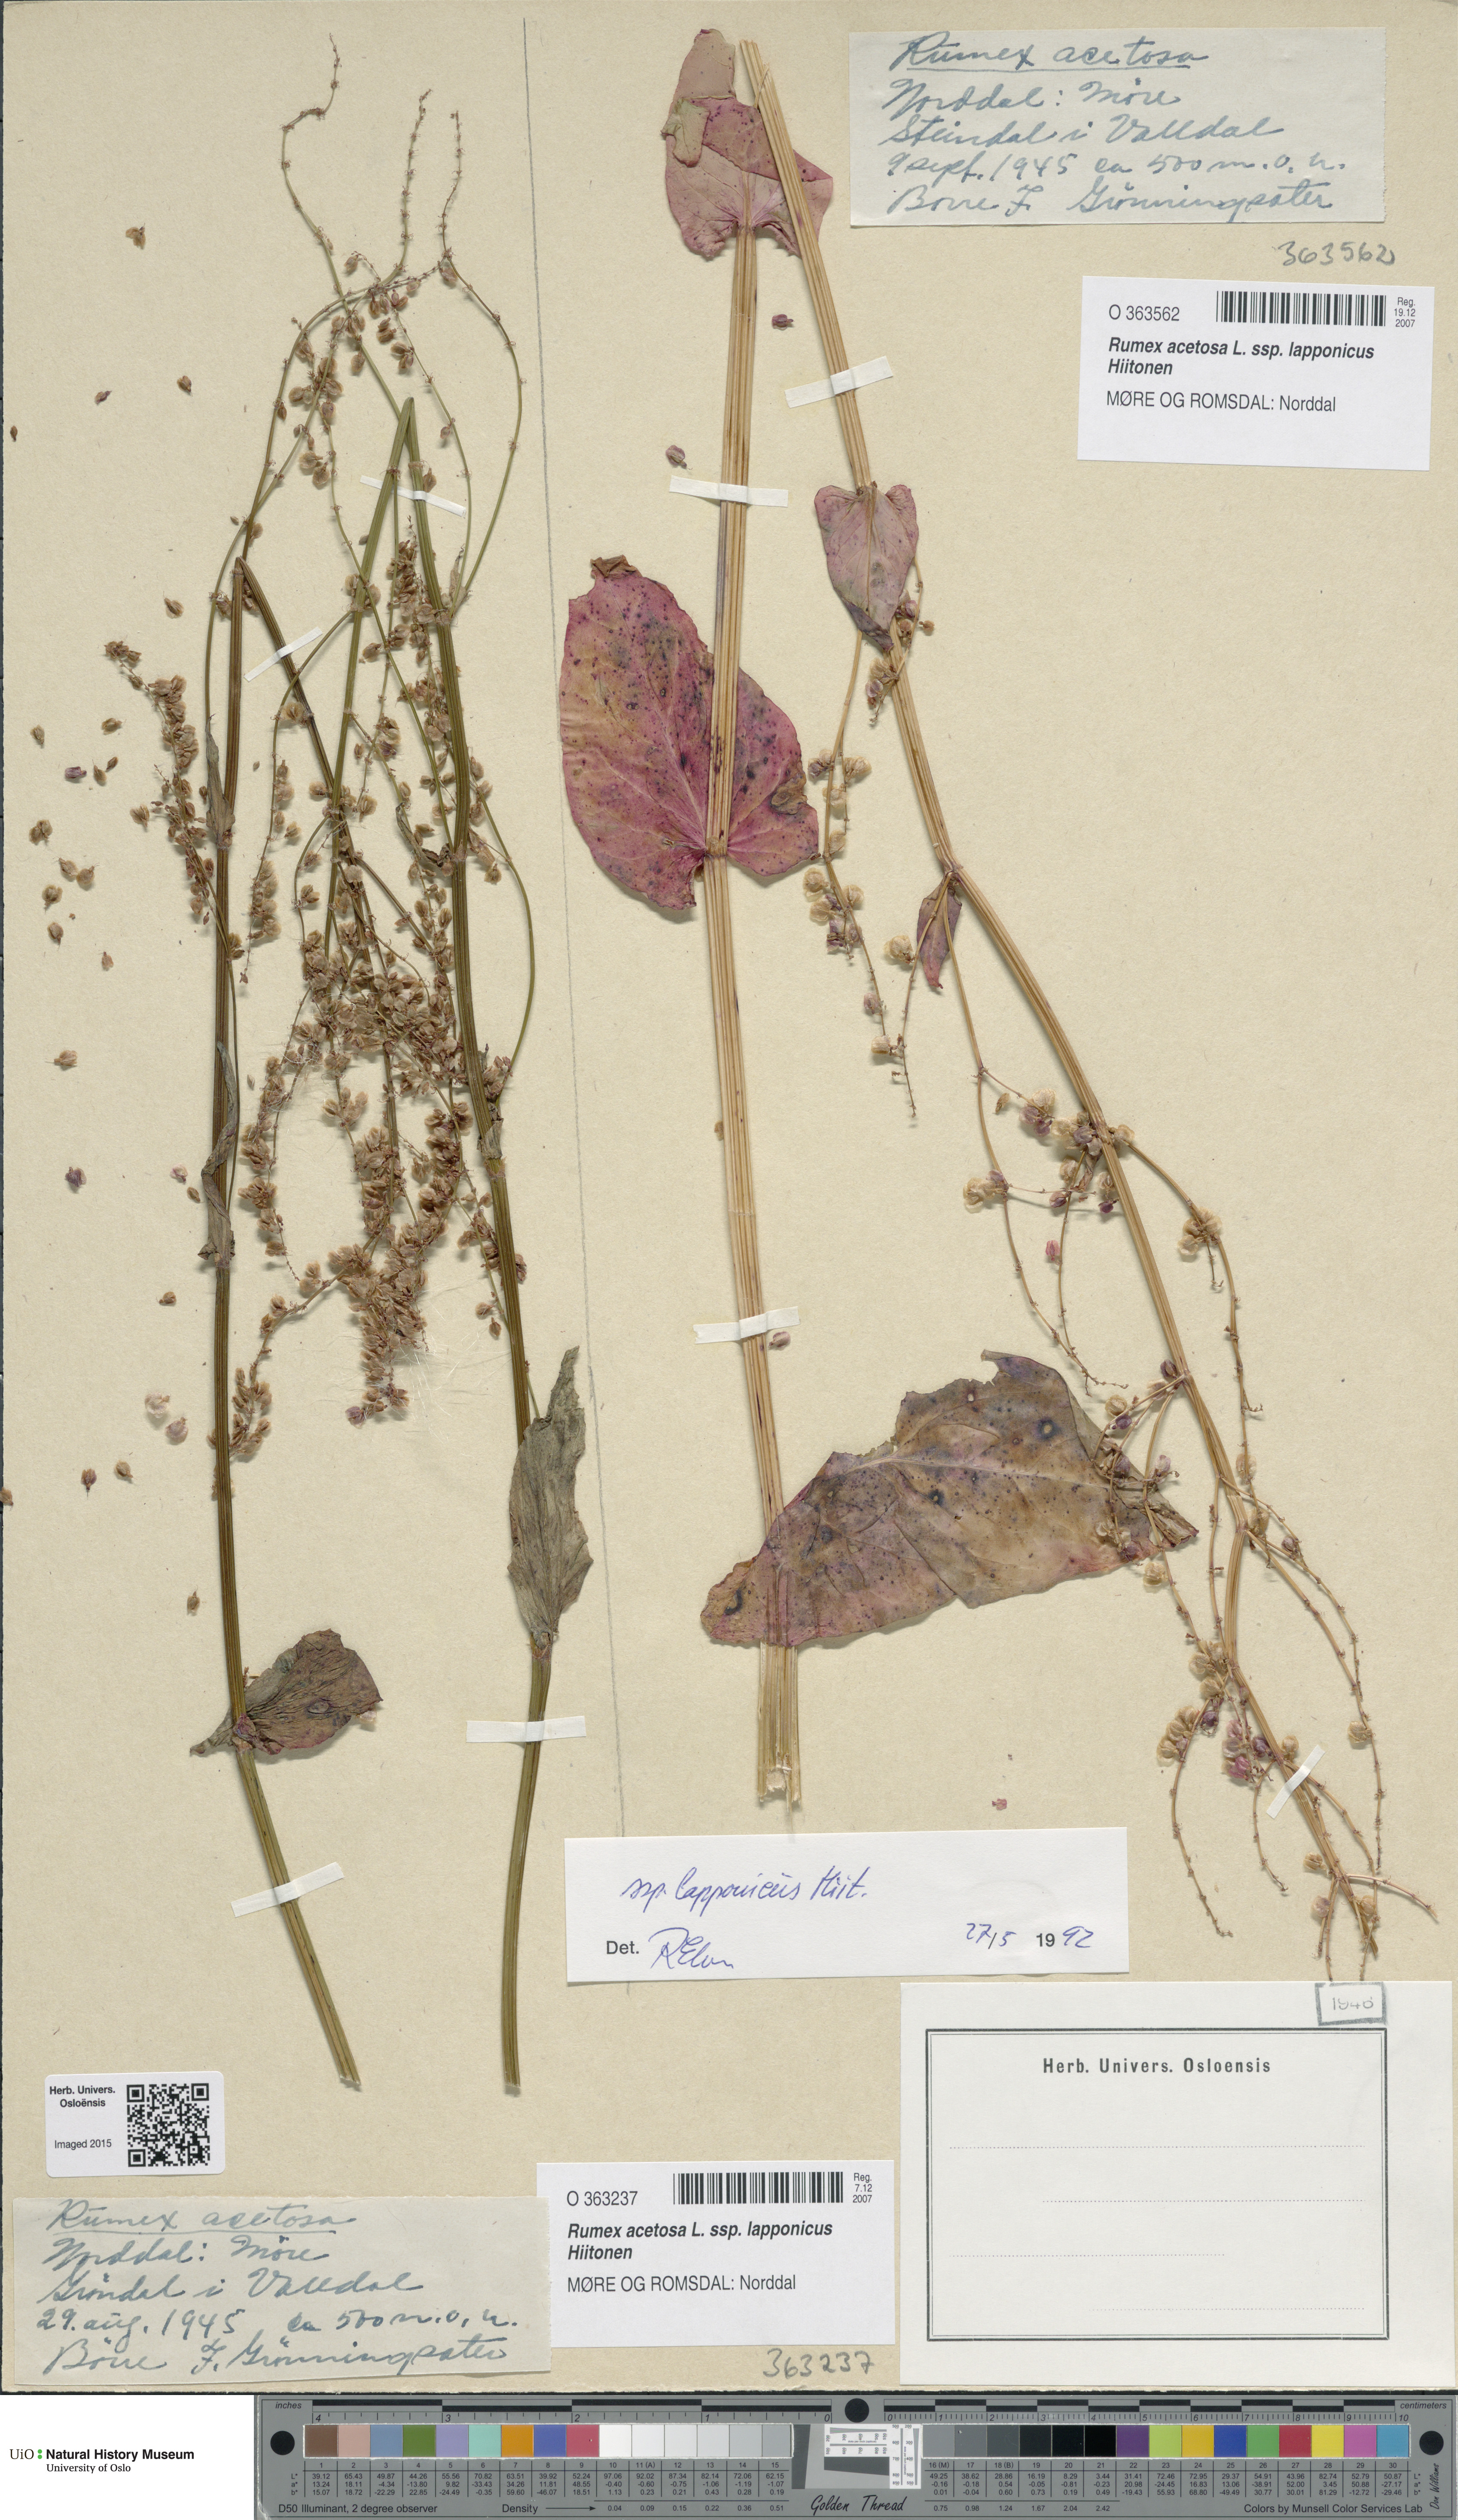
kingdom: Plantae
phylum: Tracheophyta
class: Magnoliopsida
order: Caryophyllales
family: Polygonaceae
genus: Rumex
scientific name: Rumex lapponicus
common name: Lapland mountain sorrel
